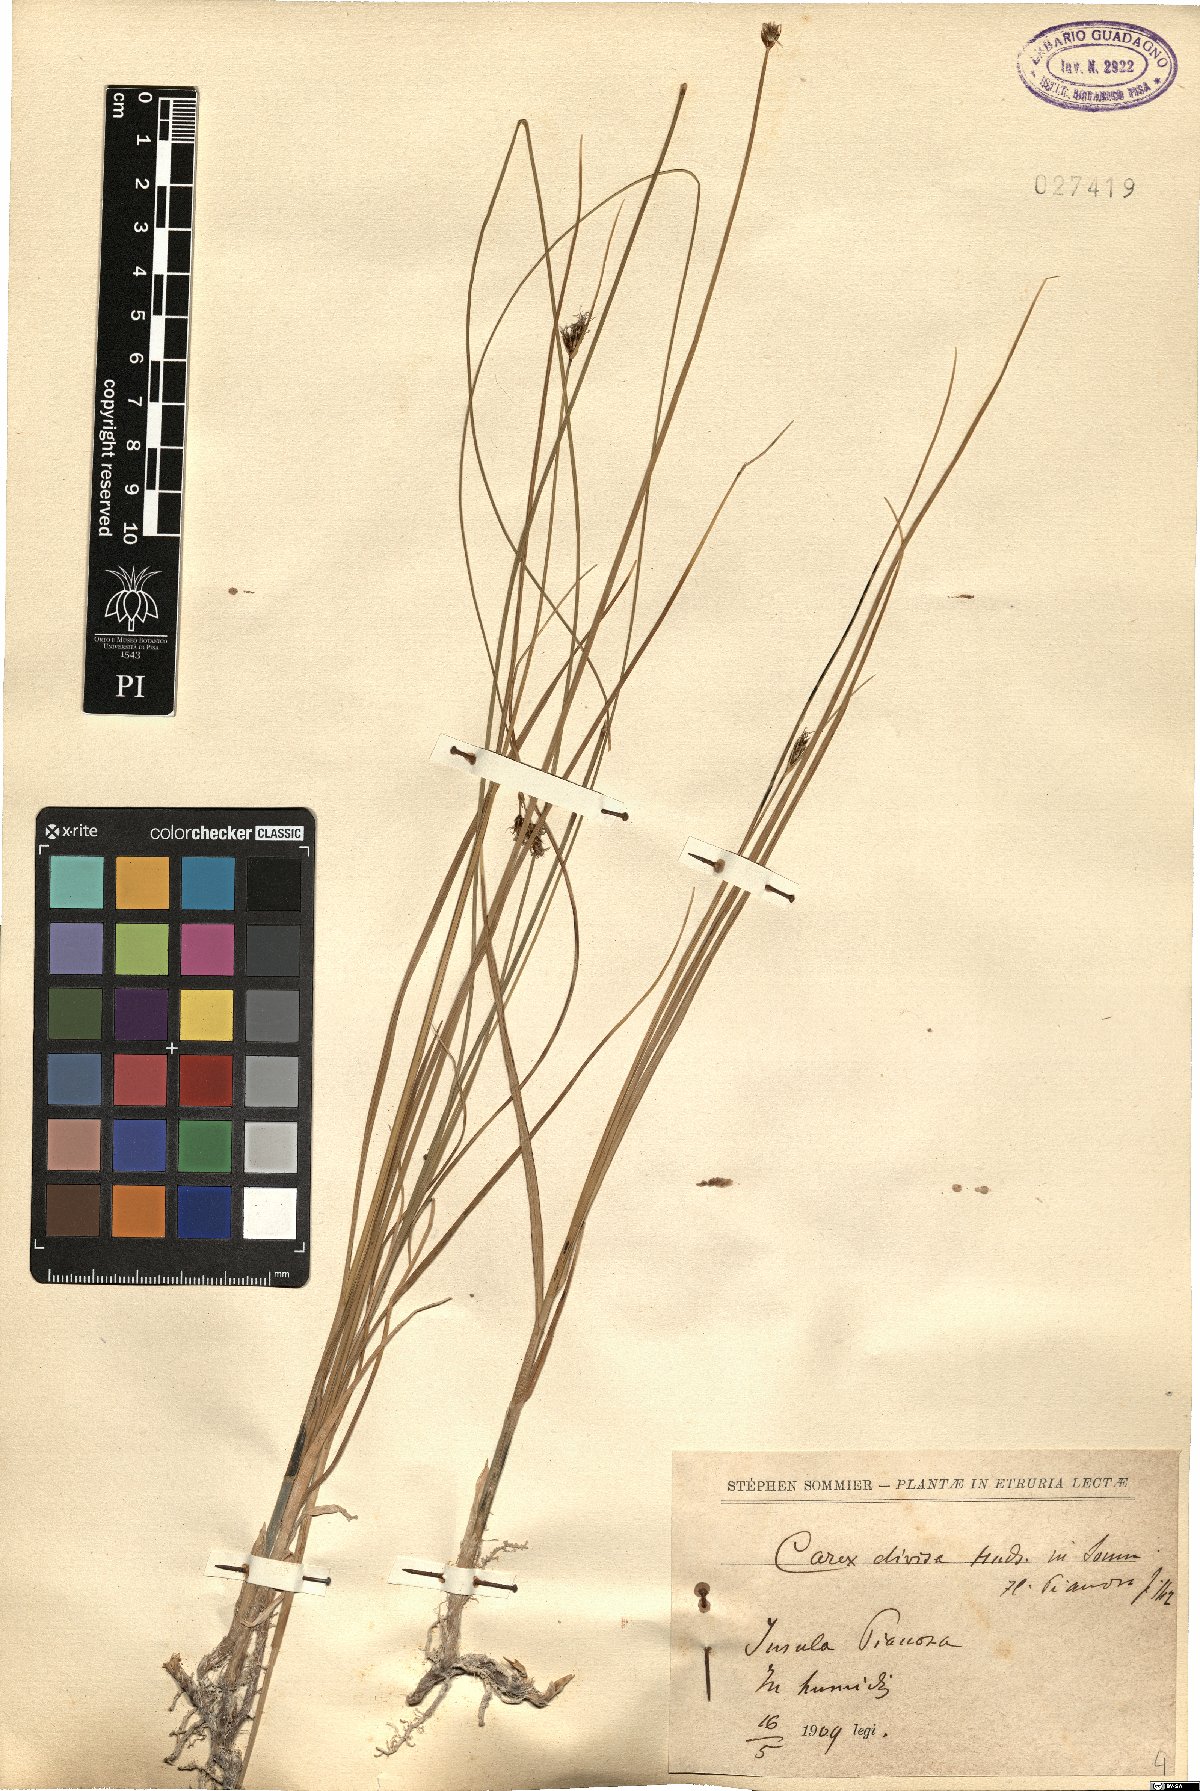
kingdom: Plantae
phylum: Tracheophyta
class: Liliopsida
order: Poales
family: Cyperaceae
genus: Carex
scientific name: Carex divisa
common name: Divided sedge
